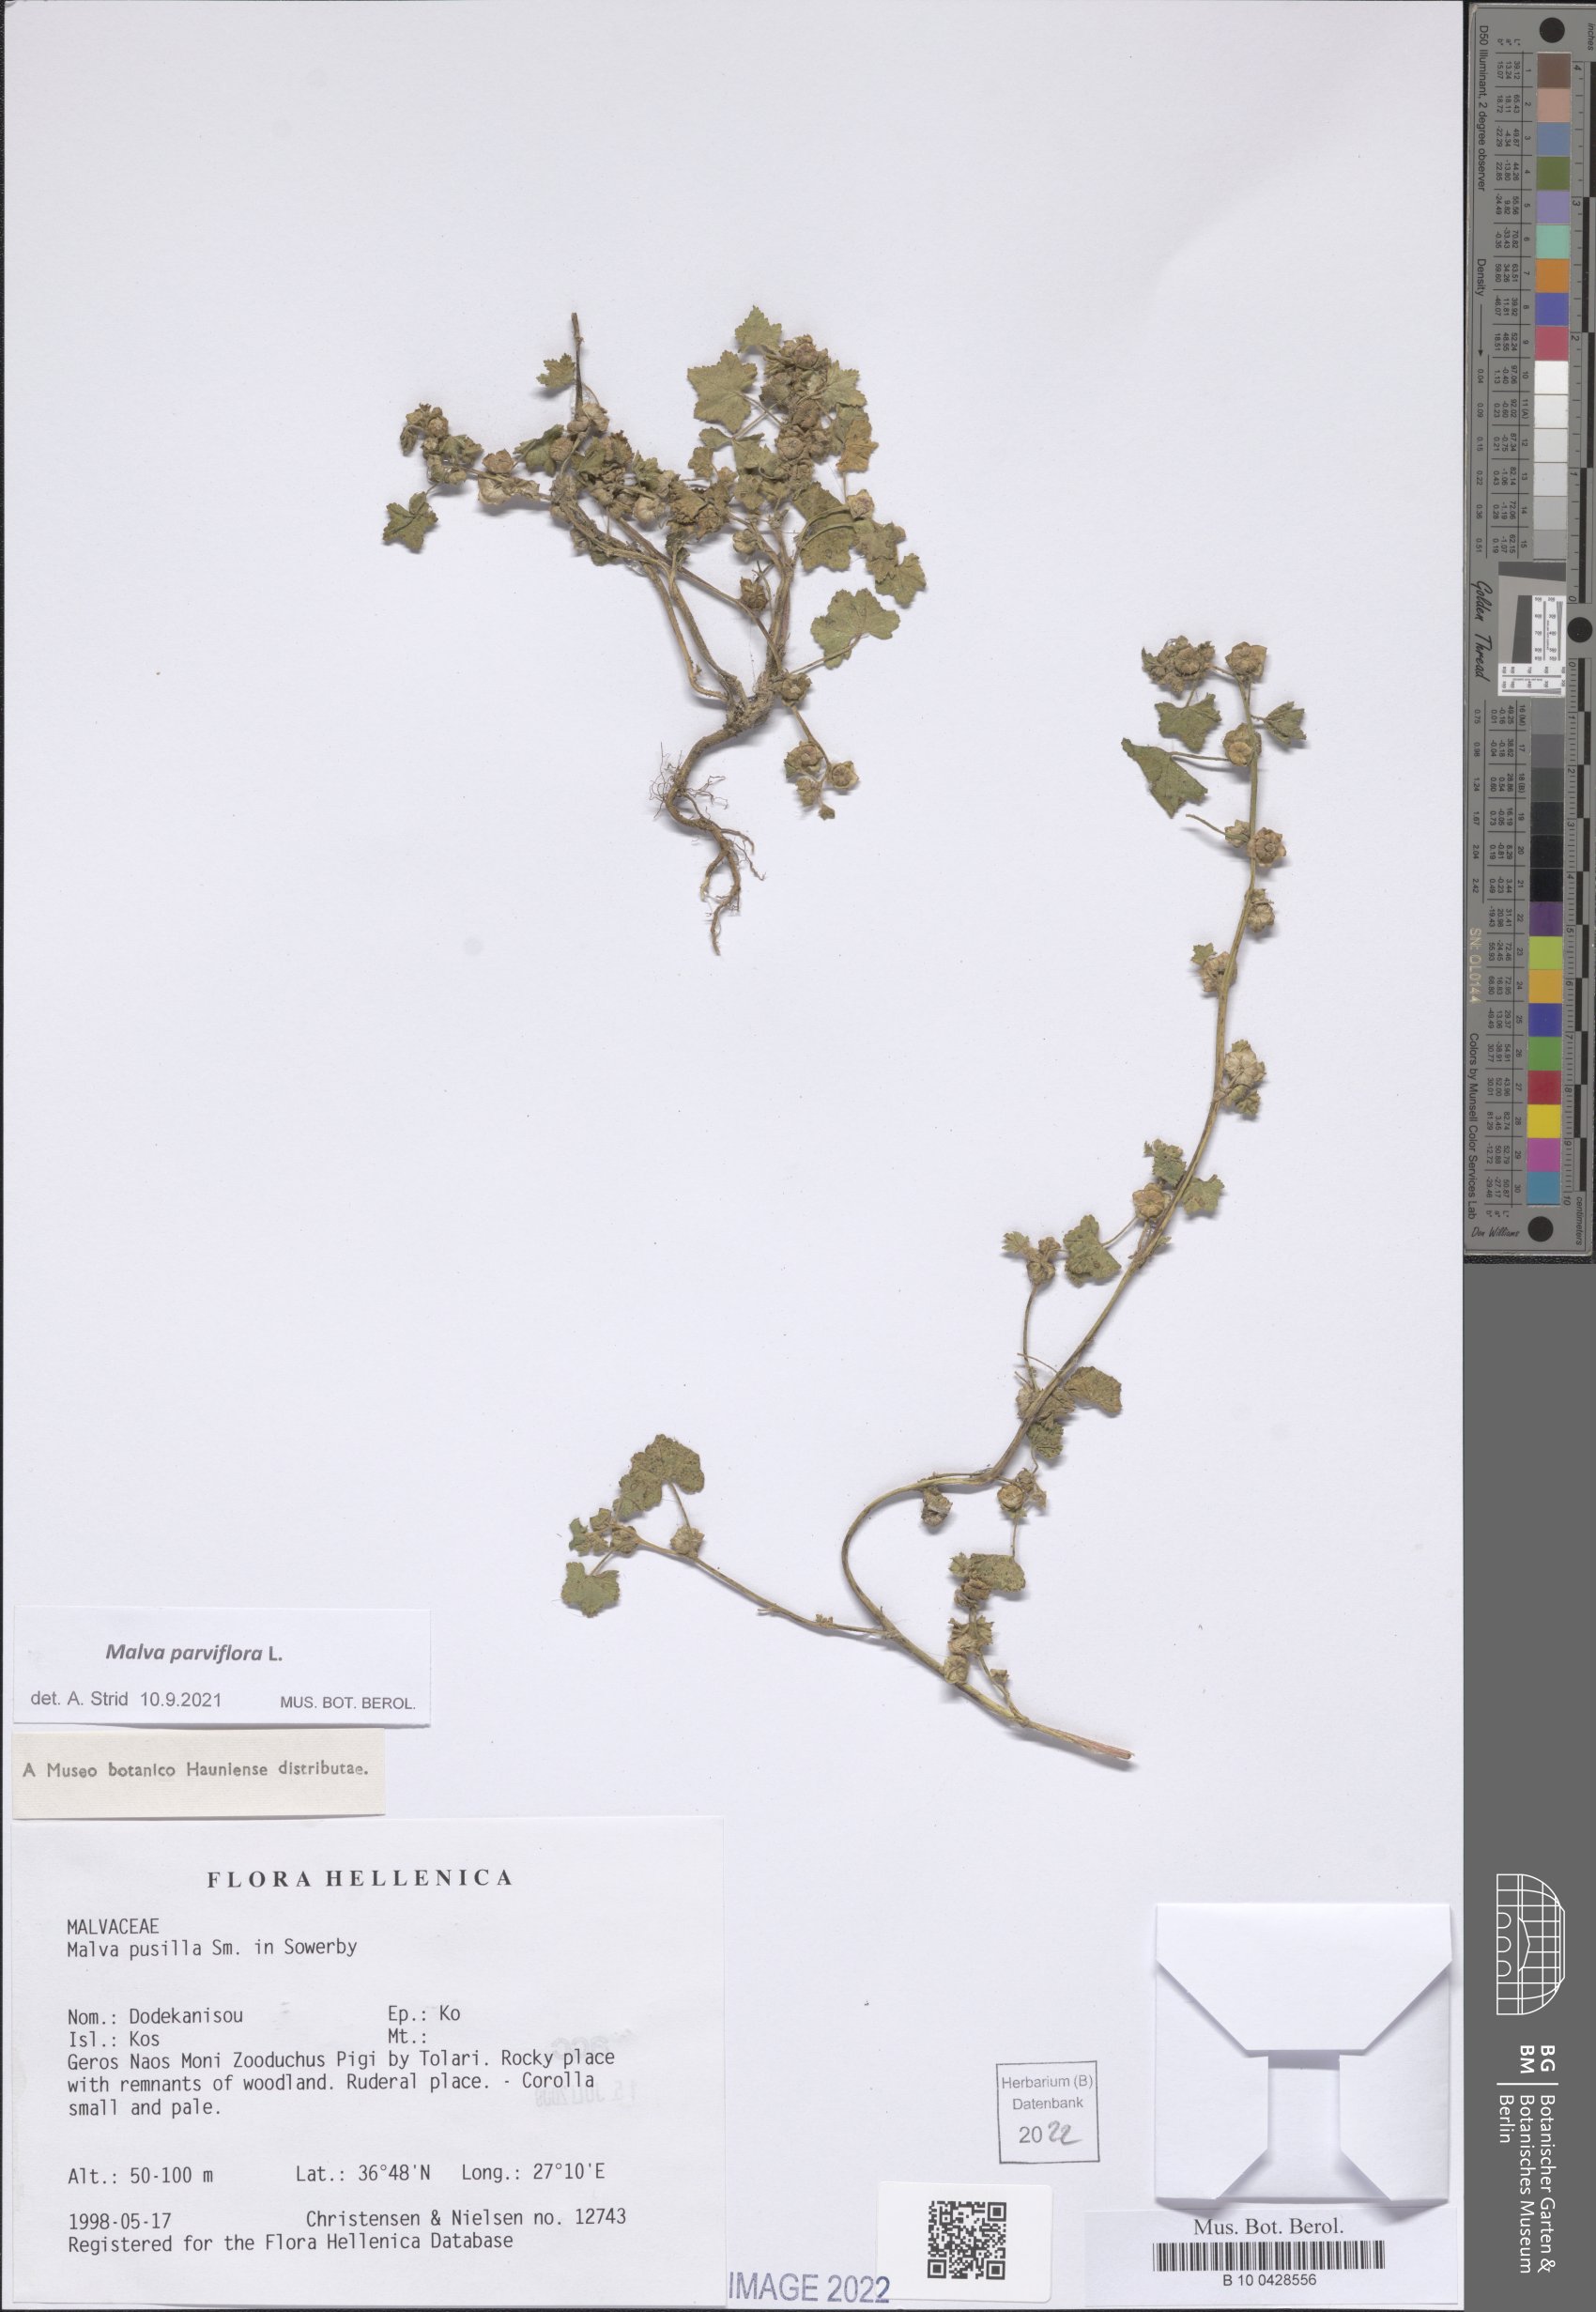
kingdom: Plantae
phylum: Tracheophyta
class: Magnoliopsida
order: Malvales
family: Malvaceae
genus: Malva
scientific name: Malva parviflora
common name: Least mallow
